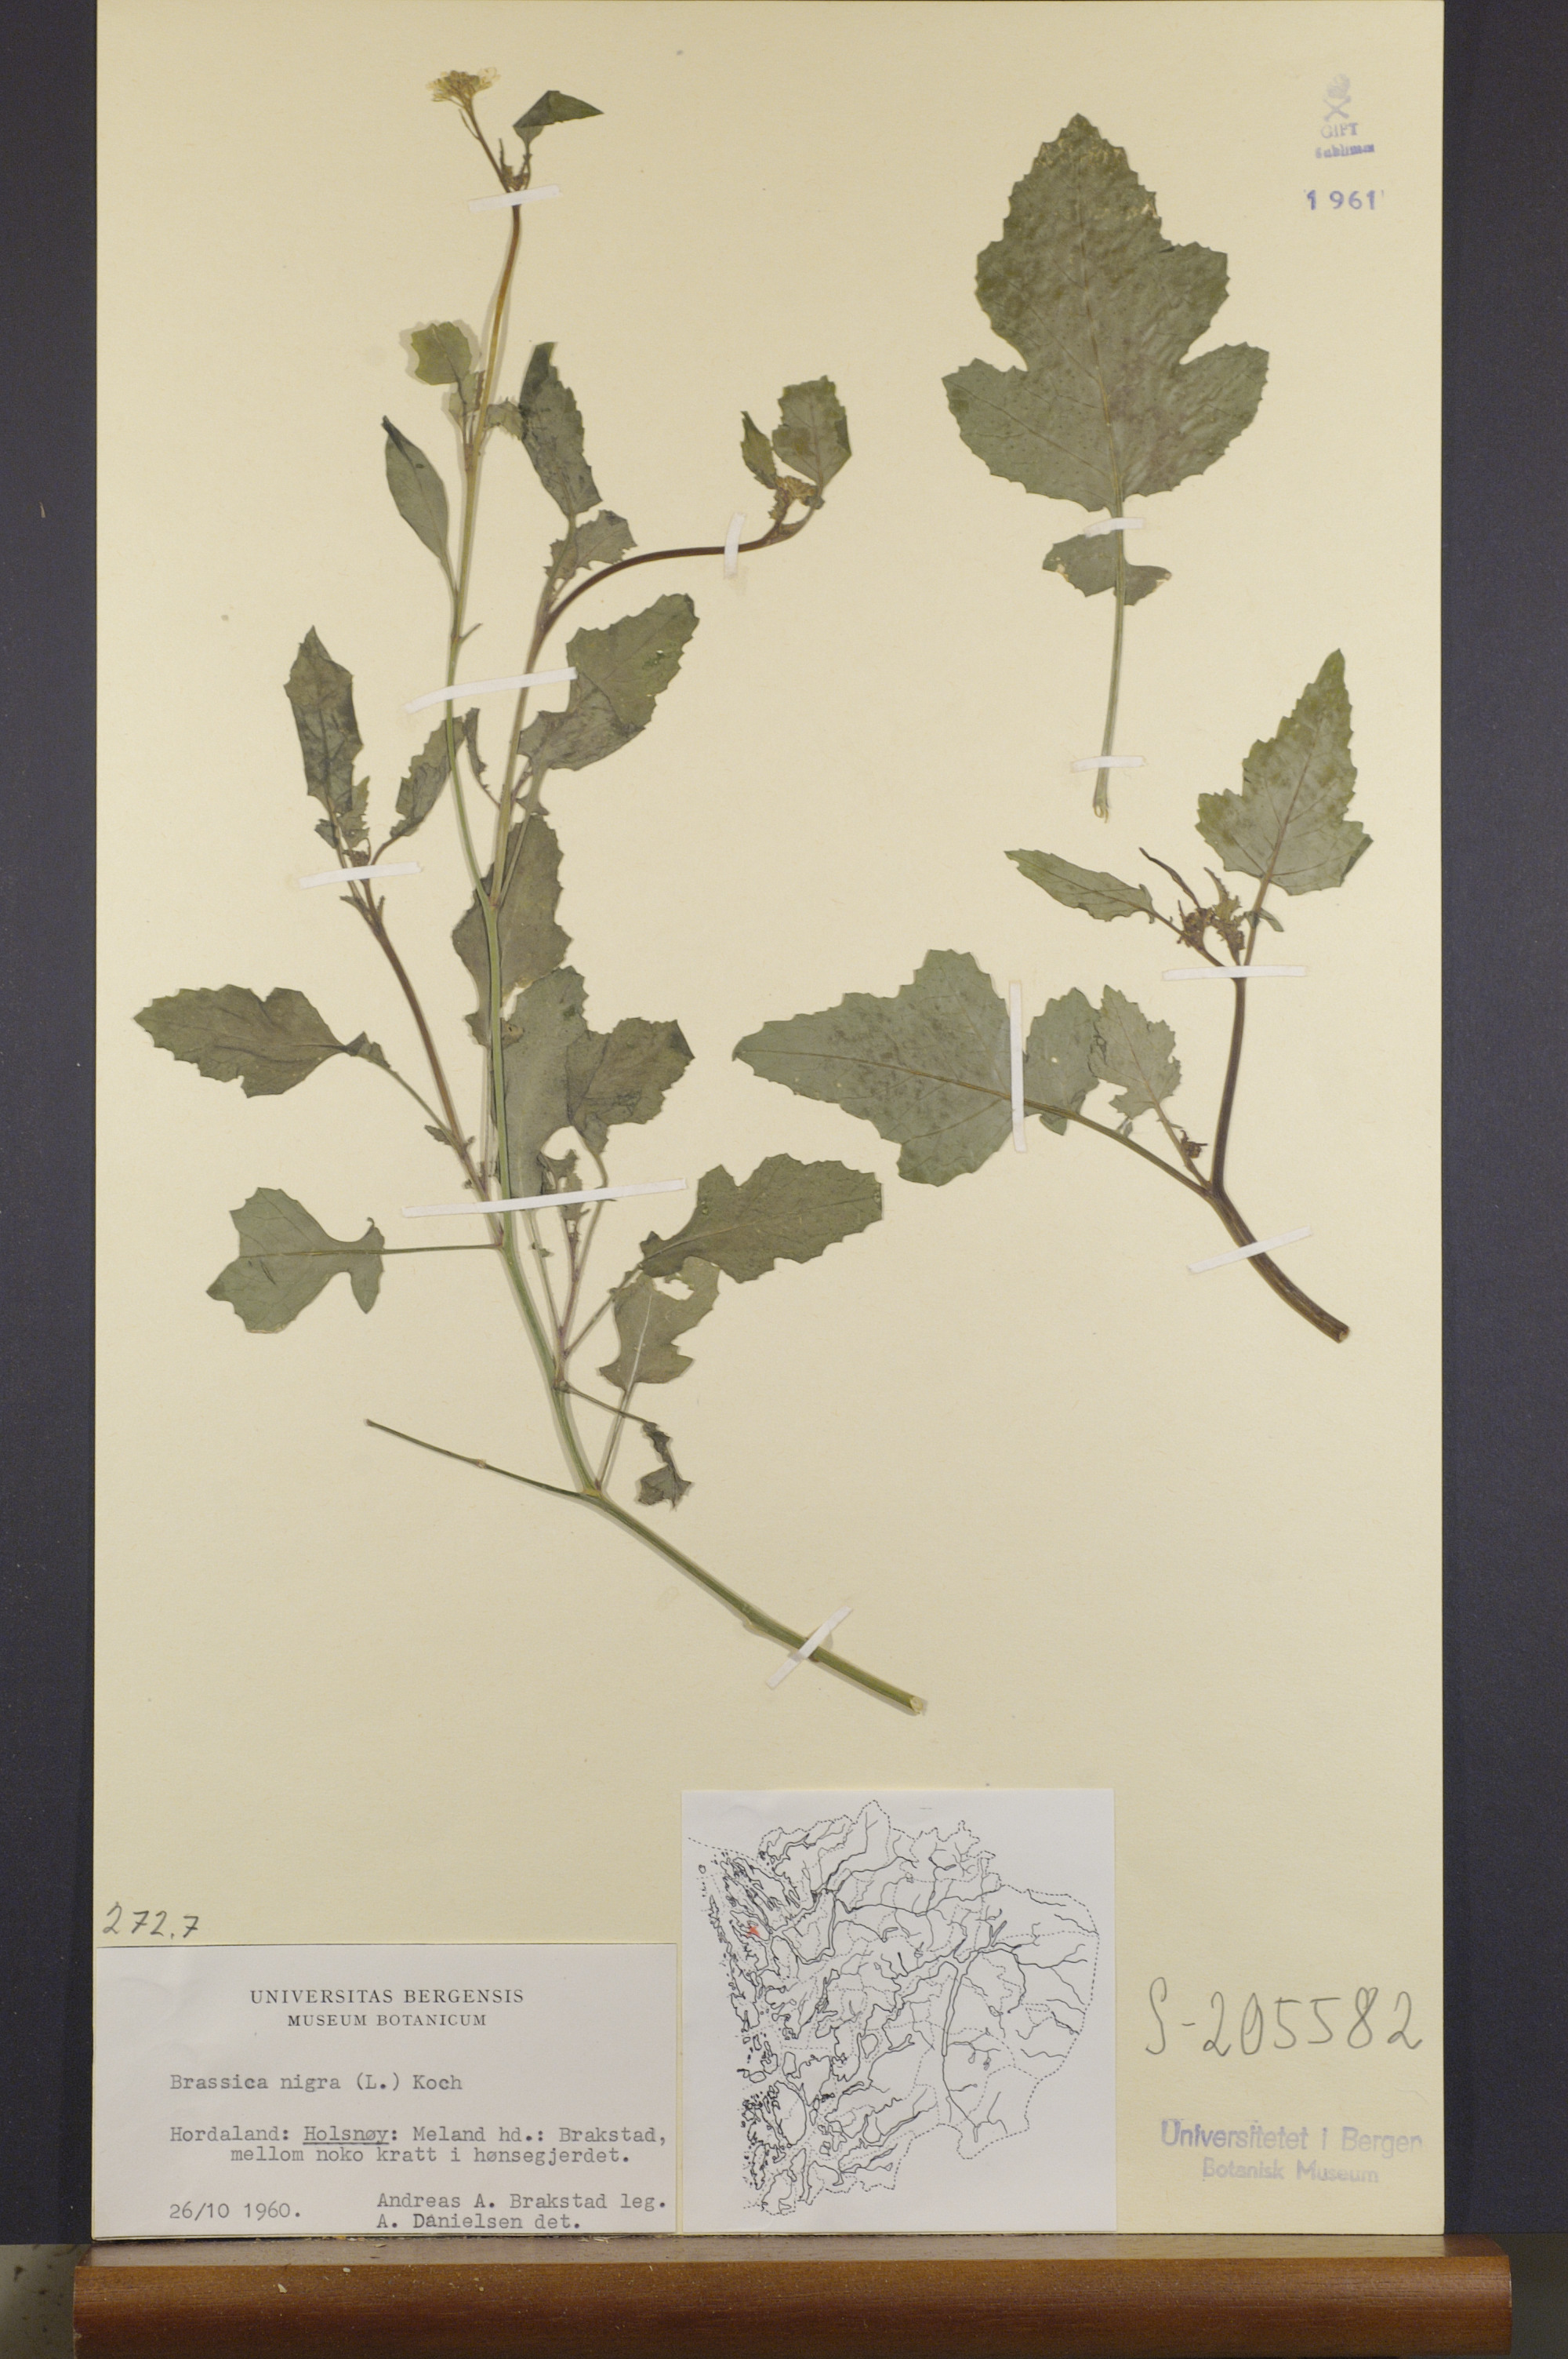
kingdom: Plantae
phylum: Tracheophyta
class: Magnoliopsida
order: Brassicales
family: Brassicaceae
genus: Brassica
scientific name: Brassica nigra
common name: Black mustard
